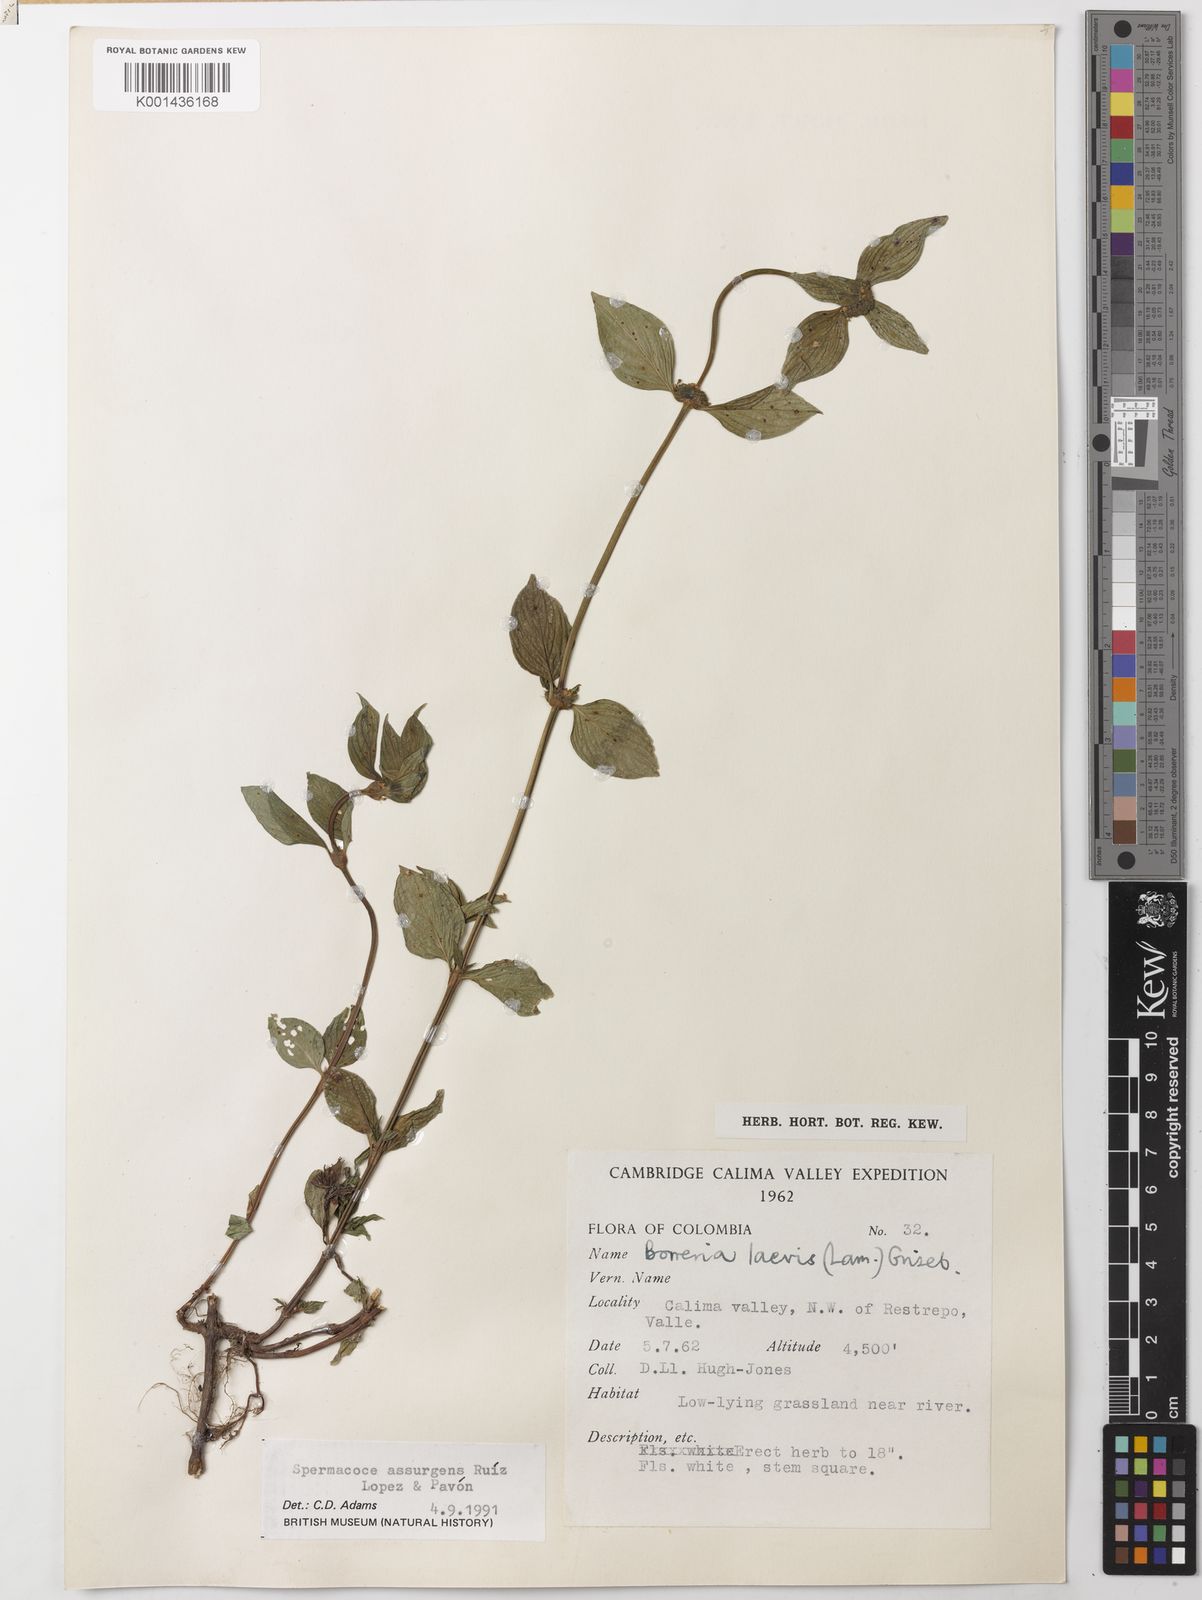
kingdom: Plantae
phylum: Tracheophyta
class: Magnoliopsida
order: Gentianales
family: Rubiaceae
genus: Spermacoce
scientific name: Spermacoce remota
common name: Woodland false buttonweed
